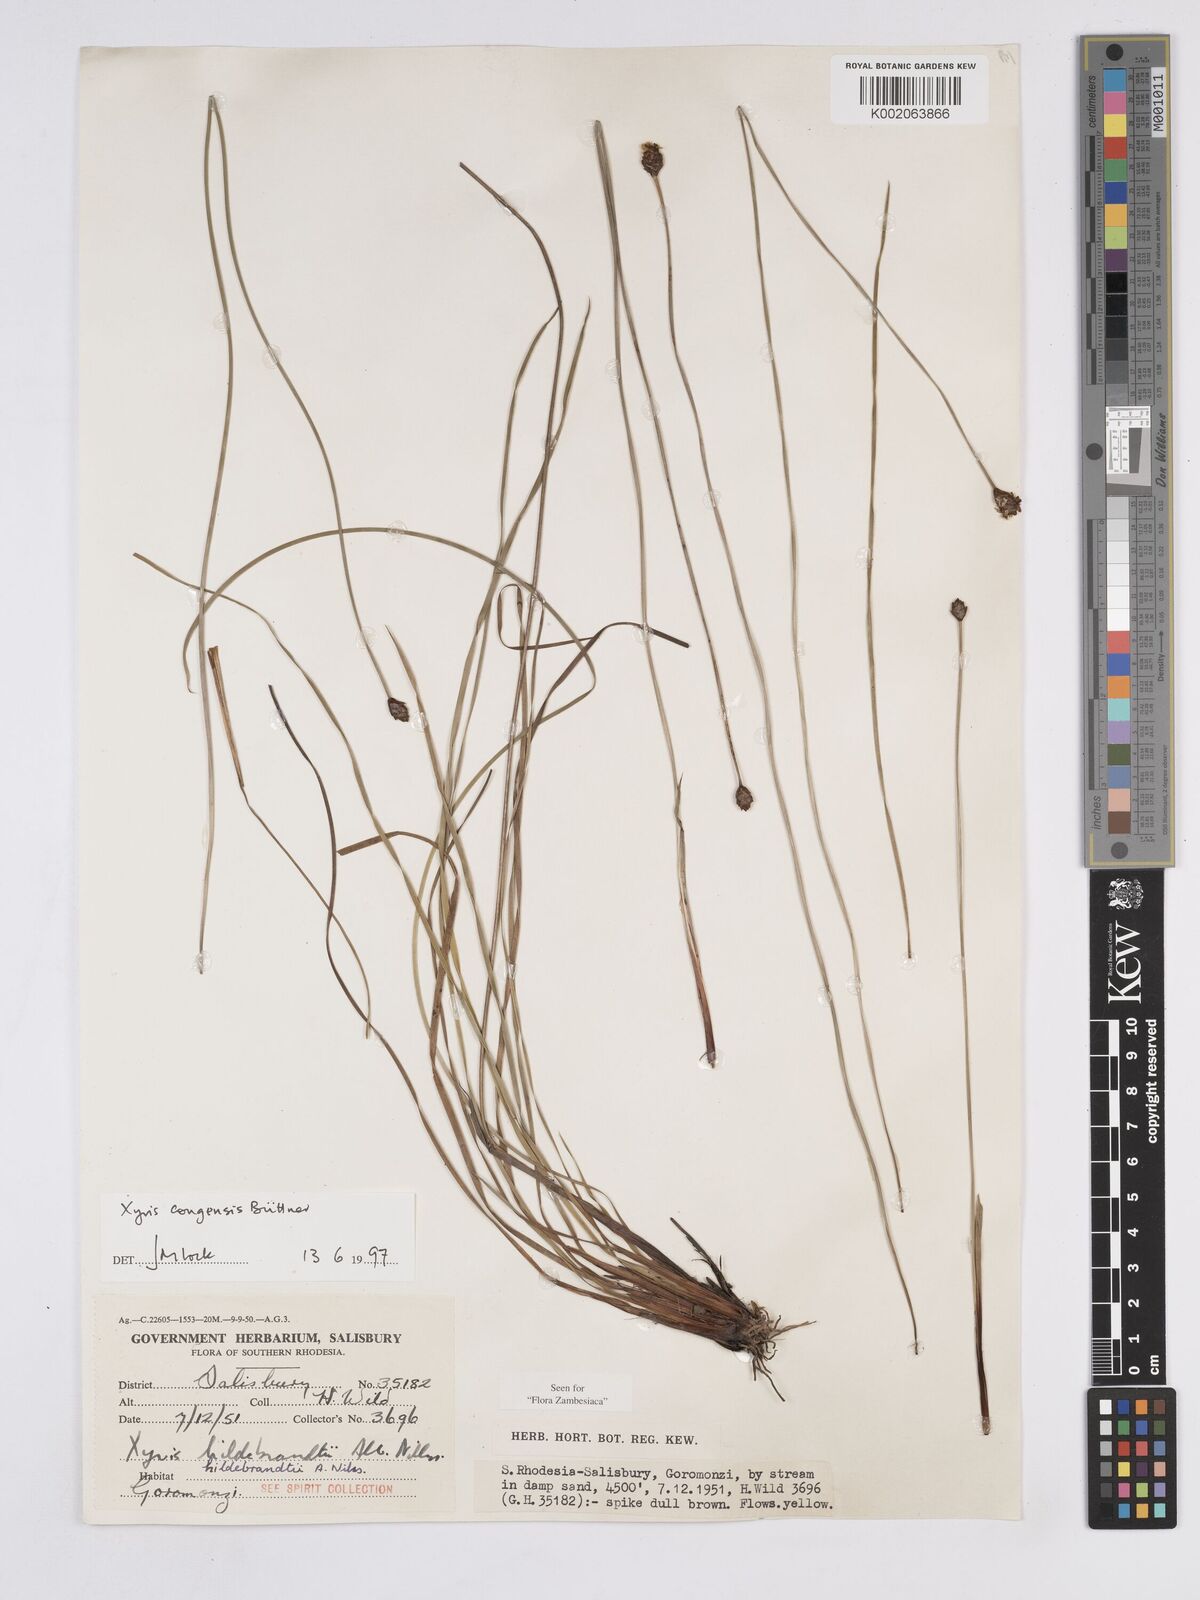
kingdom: Plantae
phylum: Tracheophyta
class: Liliopsida
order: Poales
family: Xyridaceae
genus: Xyris
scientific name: Xyris congensis
